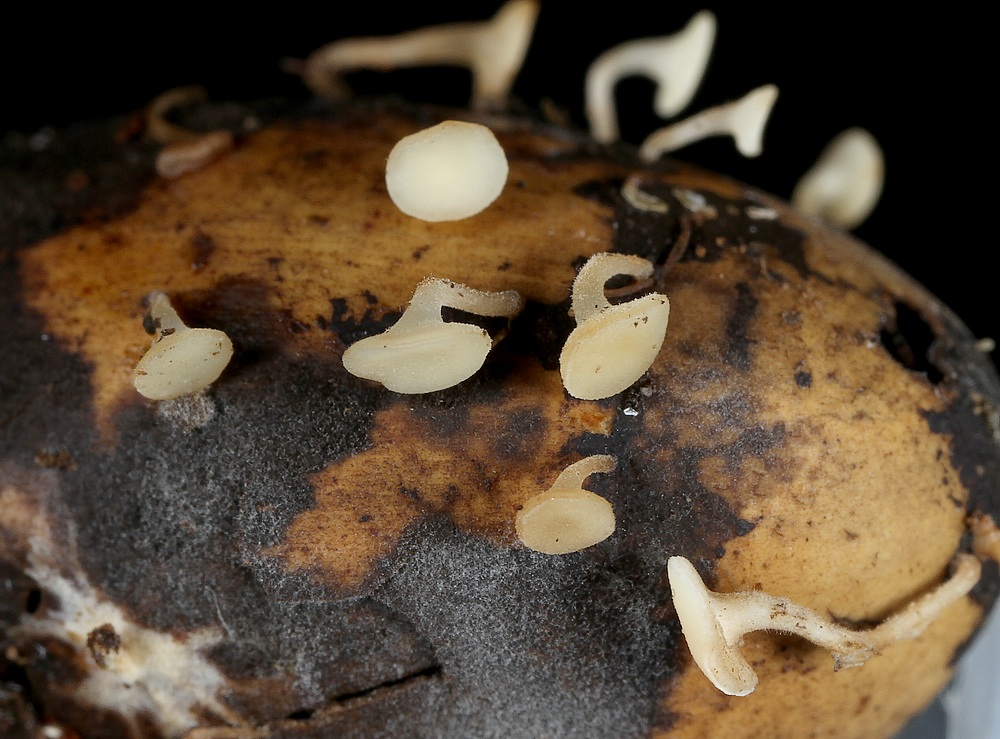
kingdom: Fungi
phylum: Ascomycota
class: Leotiomycetes
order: Helotiales
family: Helotiaceae
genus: Hymenoscyphus
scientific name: Hymenoscyphus fructigenus
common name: frugt-stilkskive
